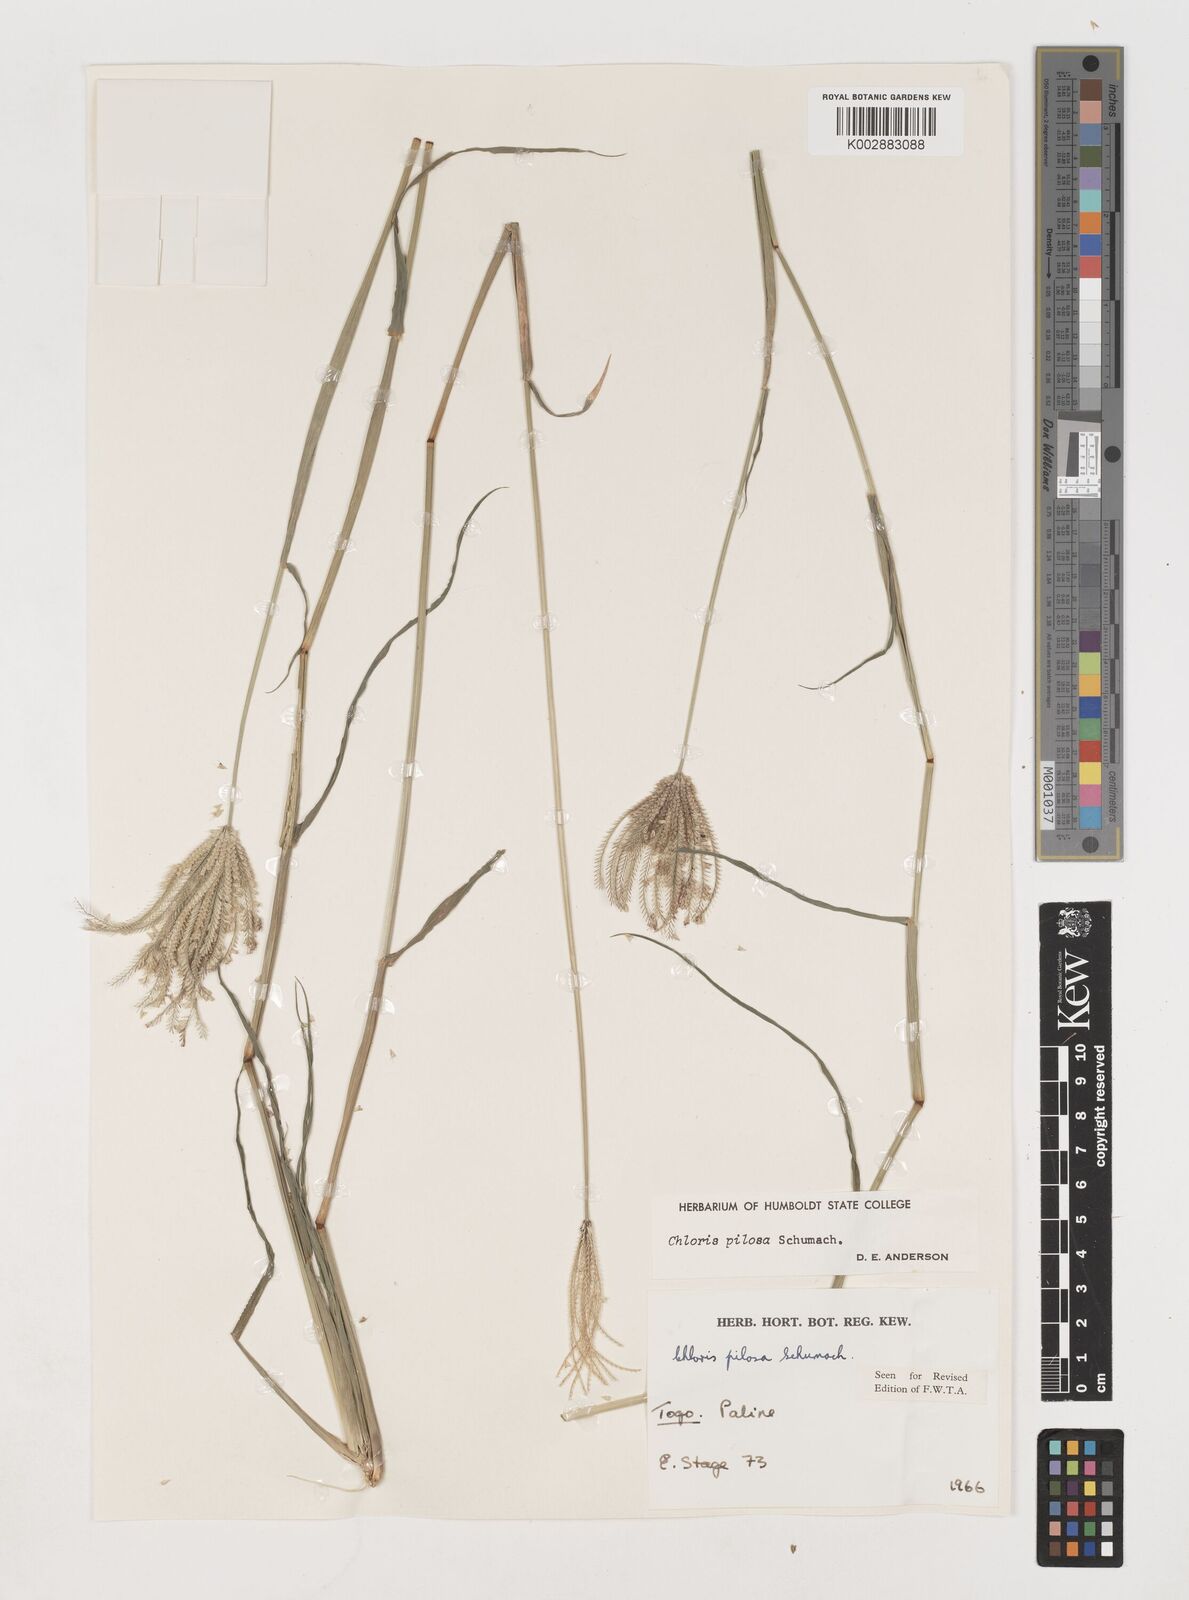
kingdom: Plantae
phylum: Tracheophyta
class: Liliopsida
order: Poales
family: Poaceae
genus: Chloris
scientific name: Chloris pilosa
